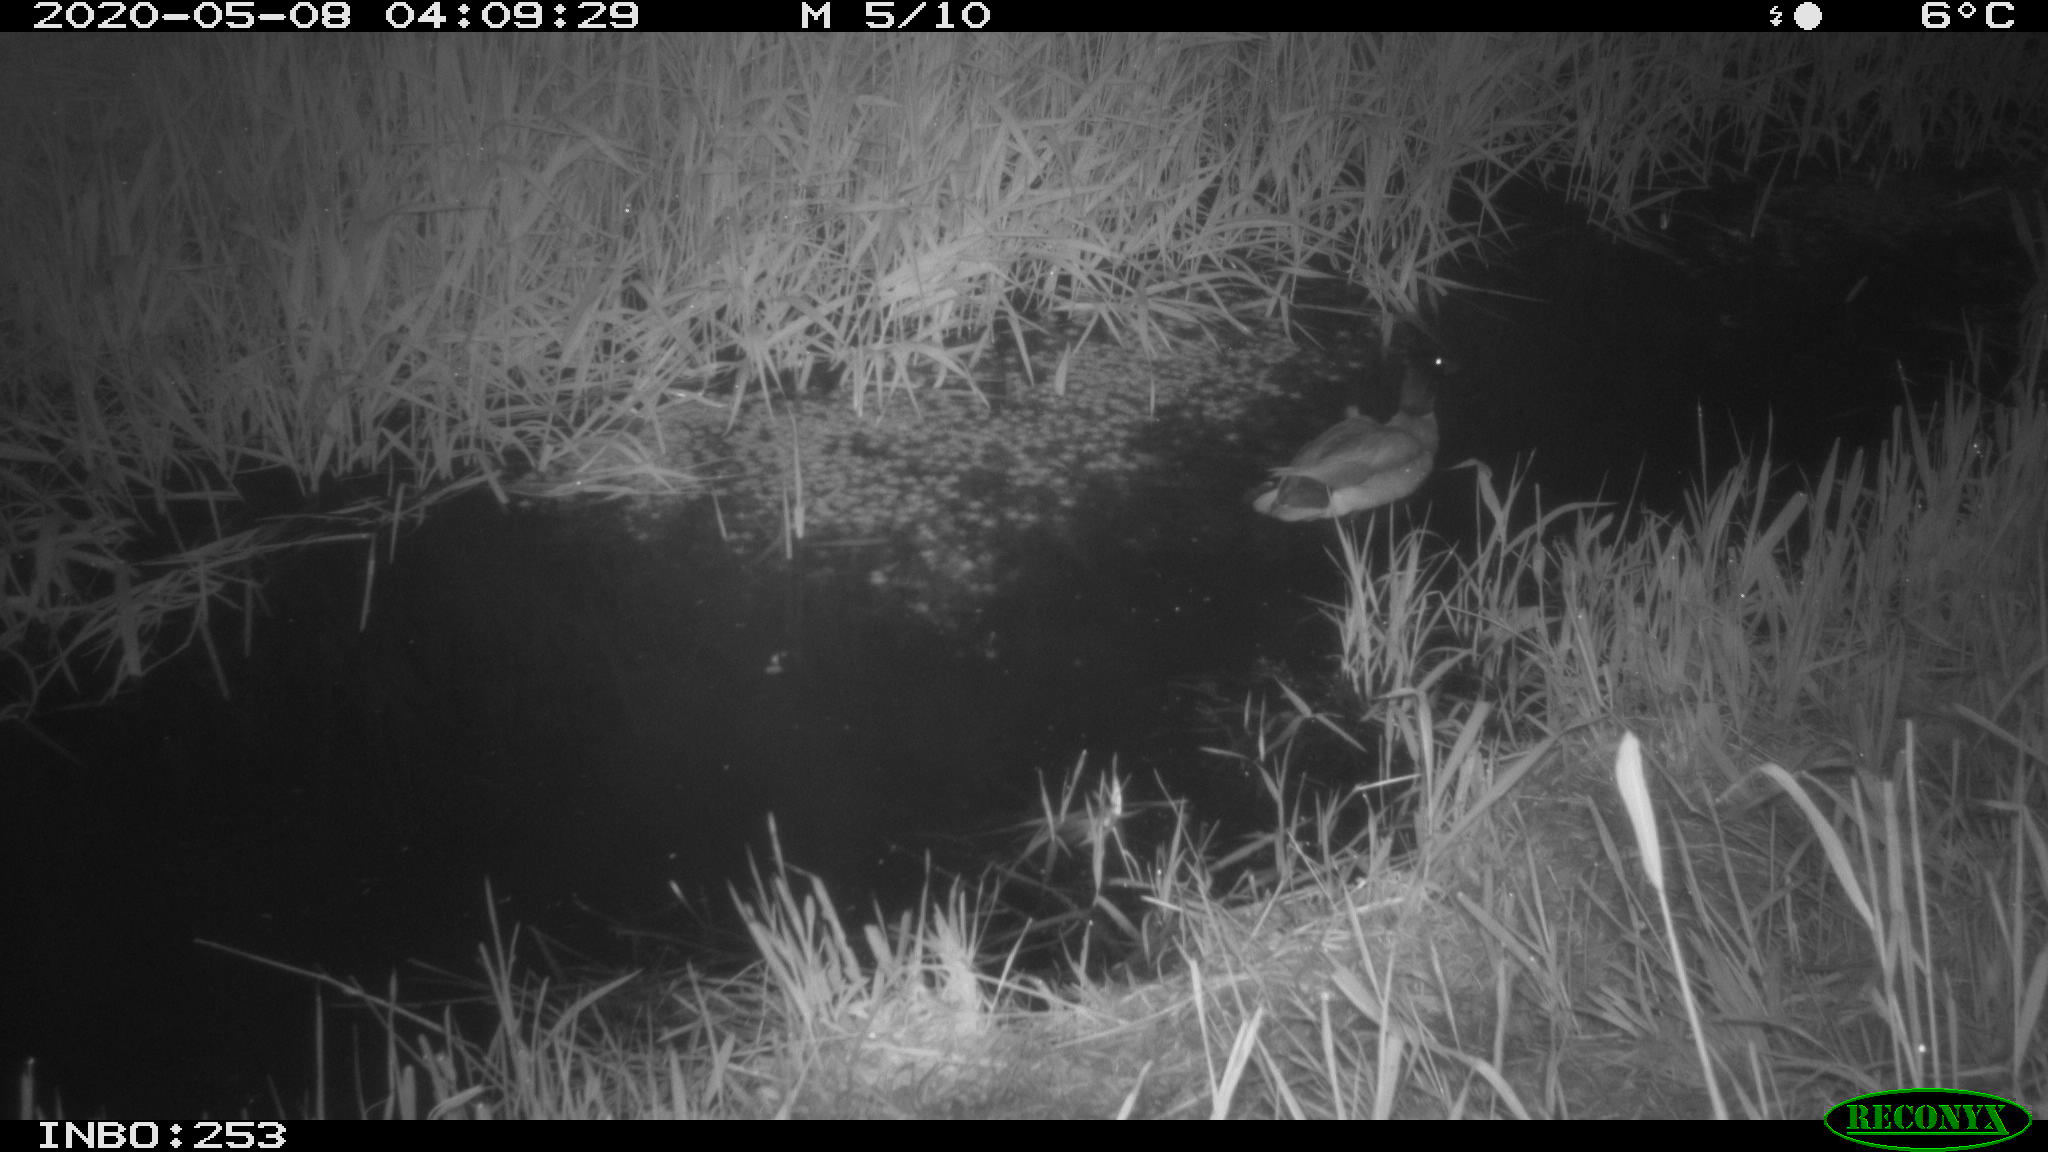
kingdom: Animalia
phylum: Chordata
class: Aves
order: Anseriformes
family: Anatidae
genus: Anas
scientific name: Anas platyrhynchos
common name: Mallard
